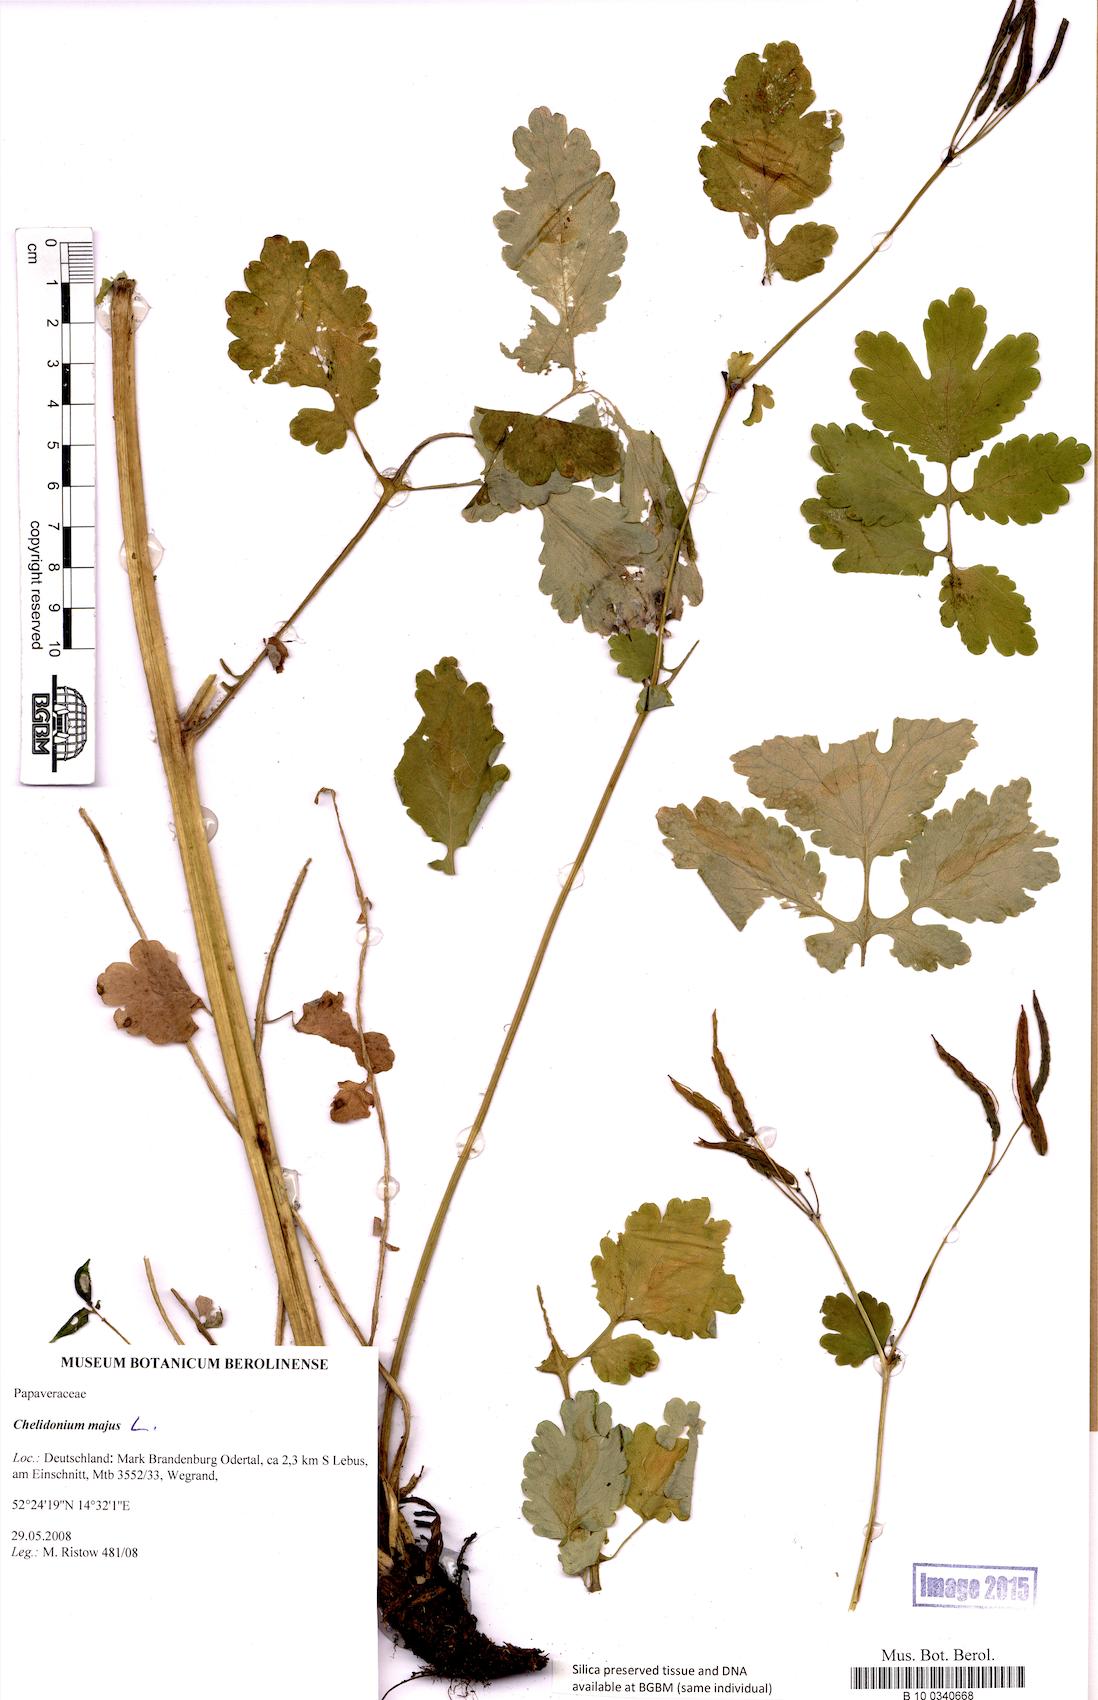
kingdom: Plantae
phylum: Tracheophyta
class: Magnoliopsida
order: Ranunculales
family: Papaveraceae
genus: Chelidonium
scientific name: Chelidonium majus
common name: Greater celandine
